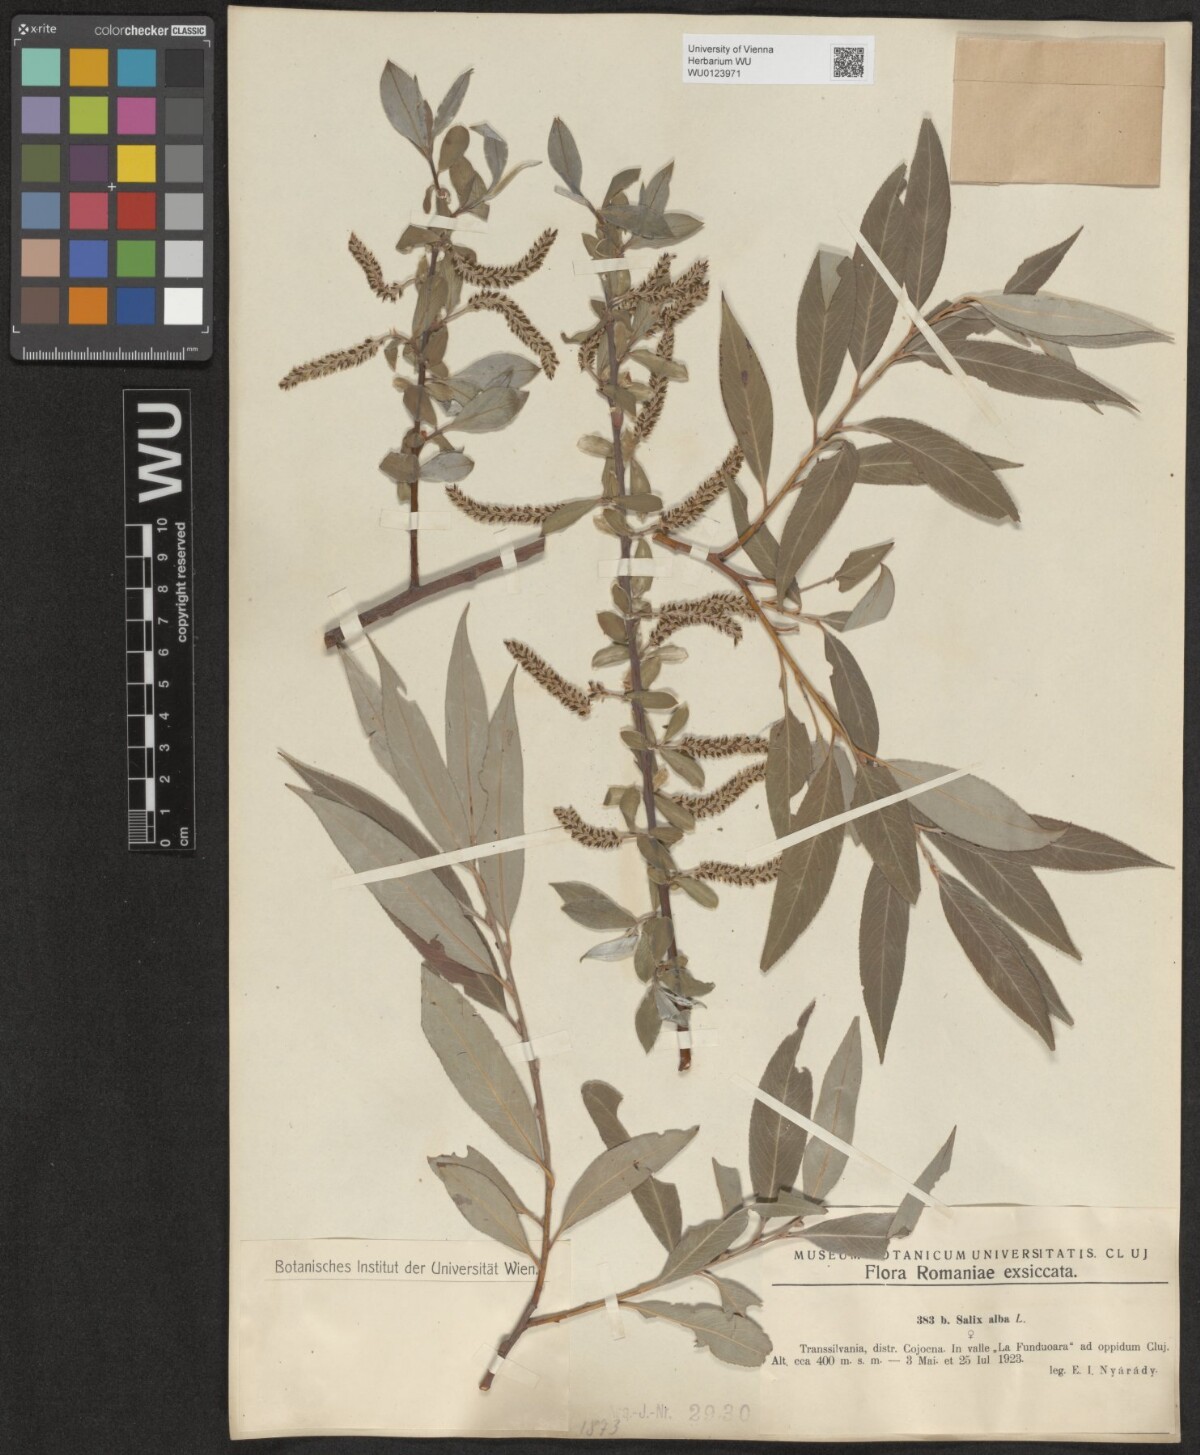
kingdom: Plantae
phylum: Tracheophyta
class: Magnoliopsida
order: Malpighiales
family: Salicaceae
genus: Salix
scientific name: Salix alba
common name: White willow
